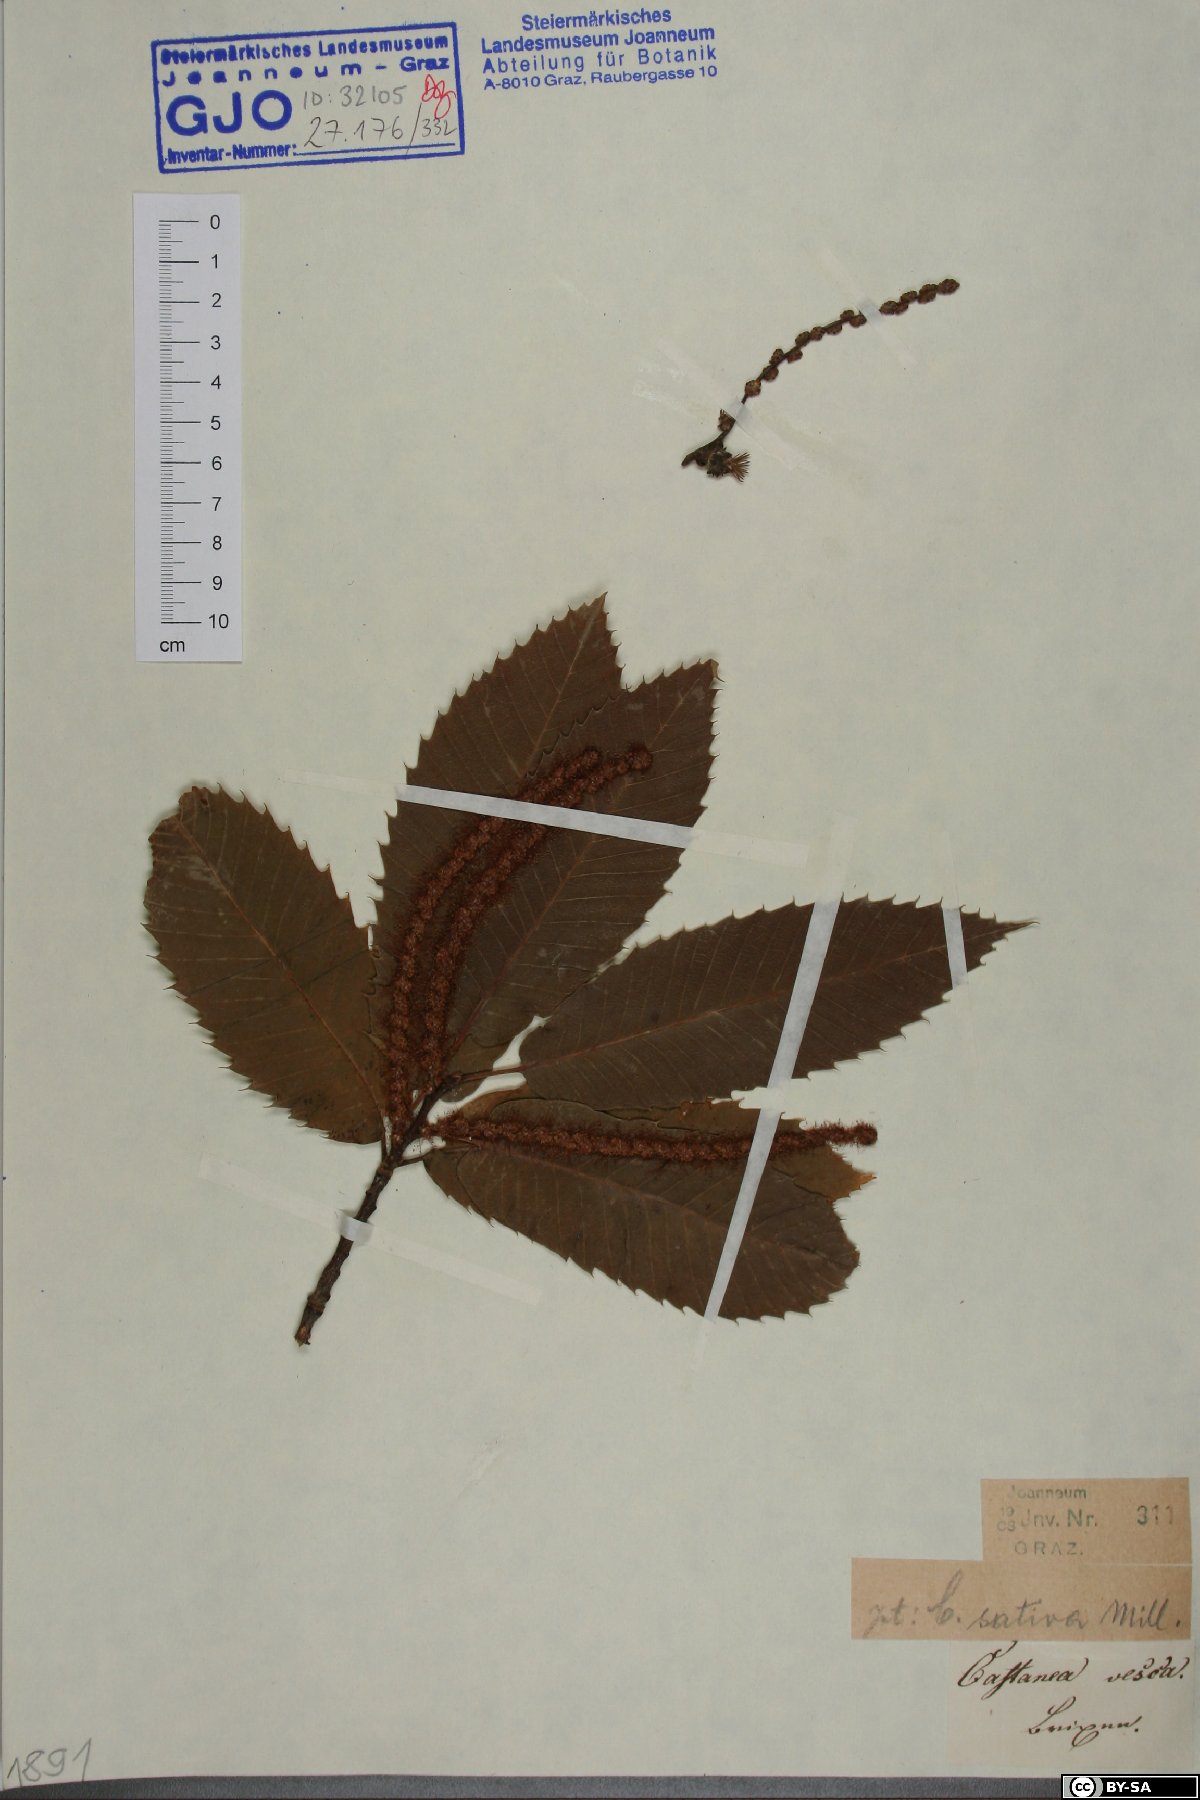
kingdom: Plantae
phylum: Tracheophyta
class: Magnoliopsida
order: Fagales
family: Fagaceae
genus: Castanea
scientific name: Castanea sativa
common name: Sweet chestnut
